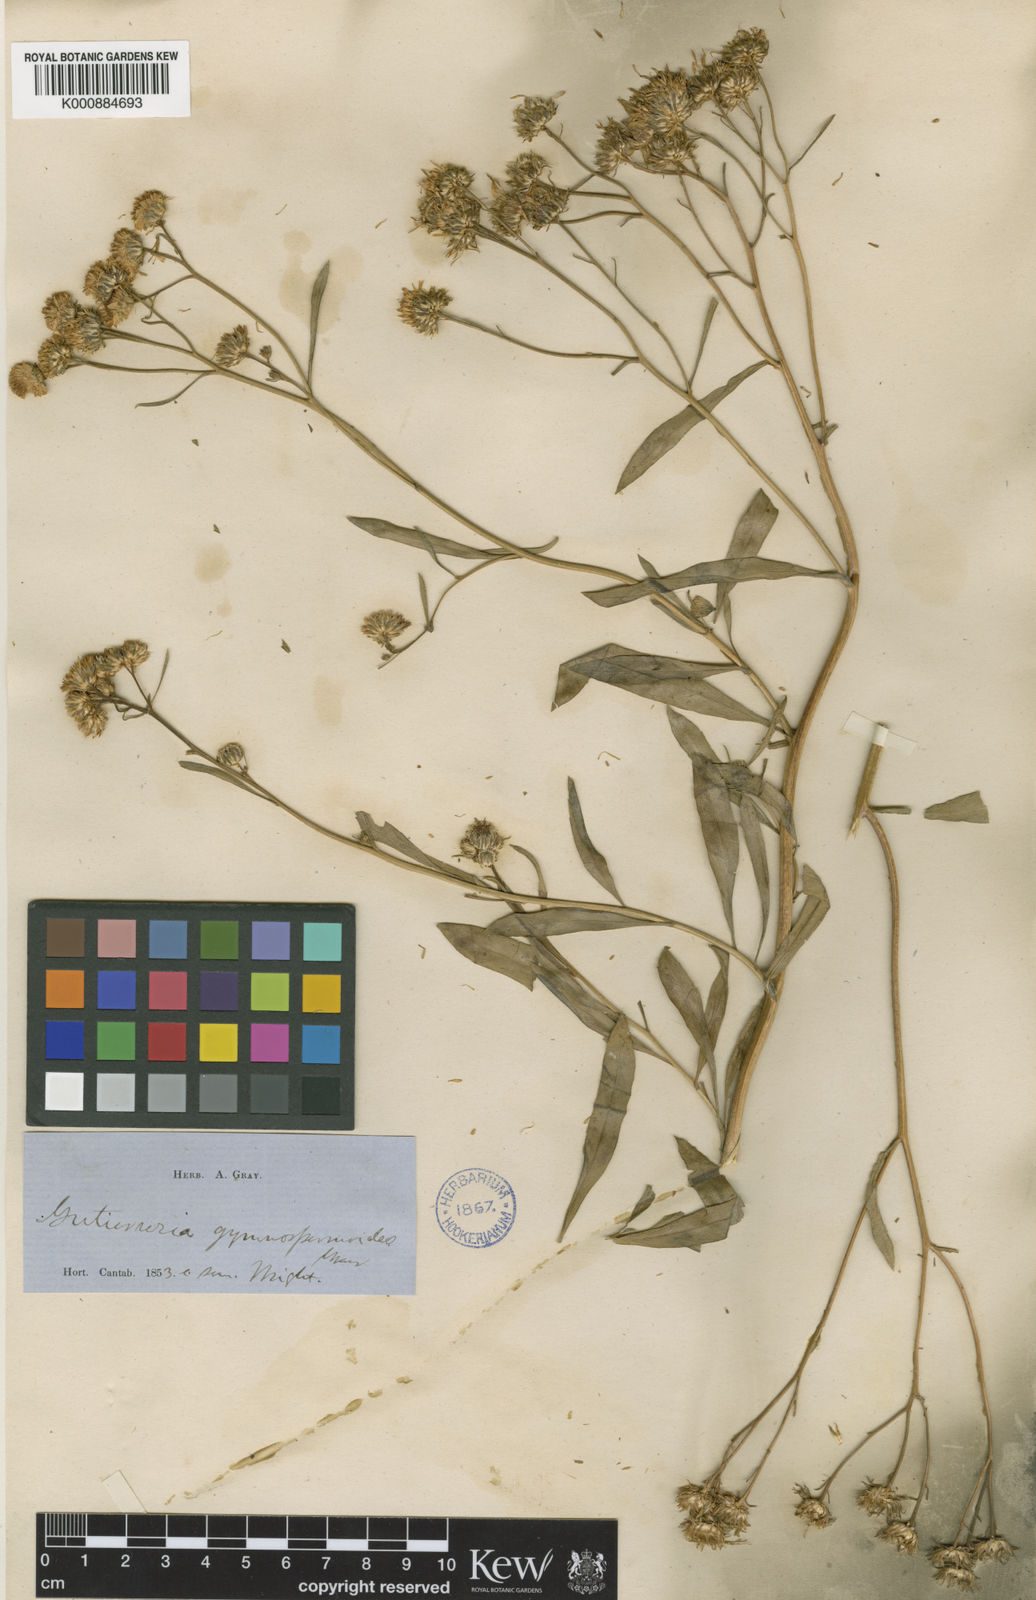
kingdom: Plantae
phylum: Tracheophyta
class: Magnoliopsida
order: Asterales
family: Asteraceae
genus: Xanthocephalum
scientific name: Xanthocephalum
